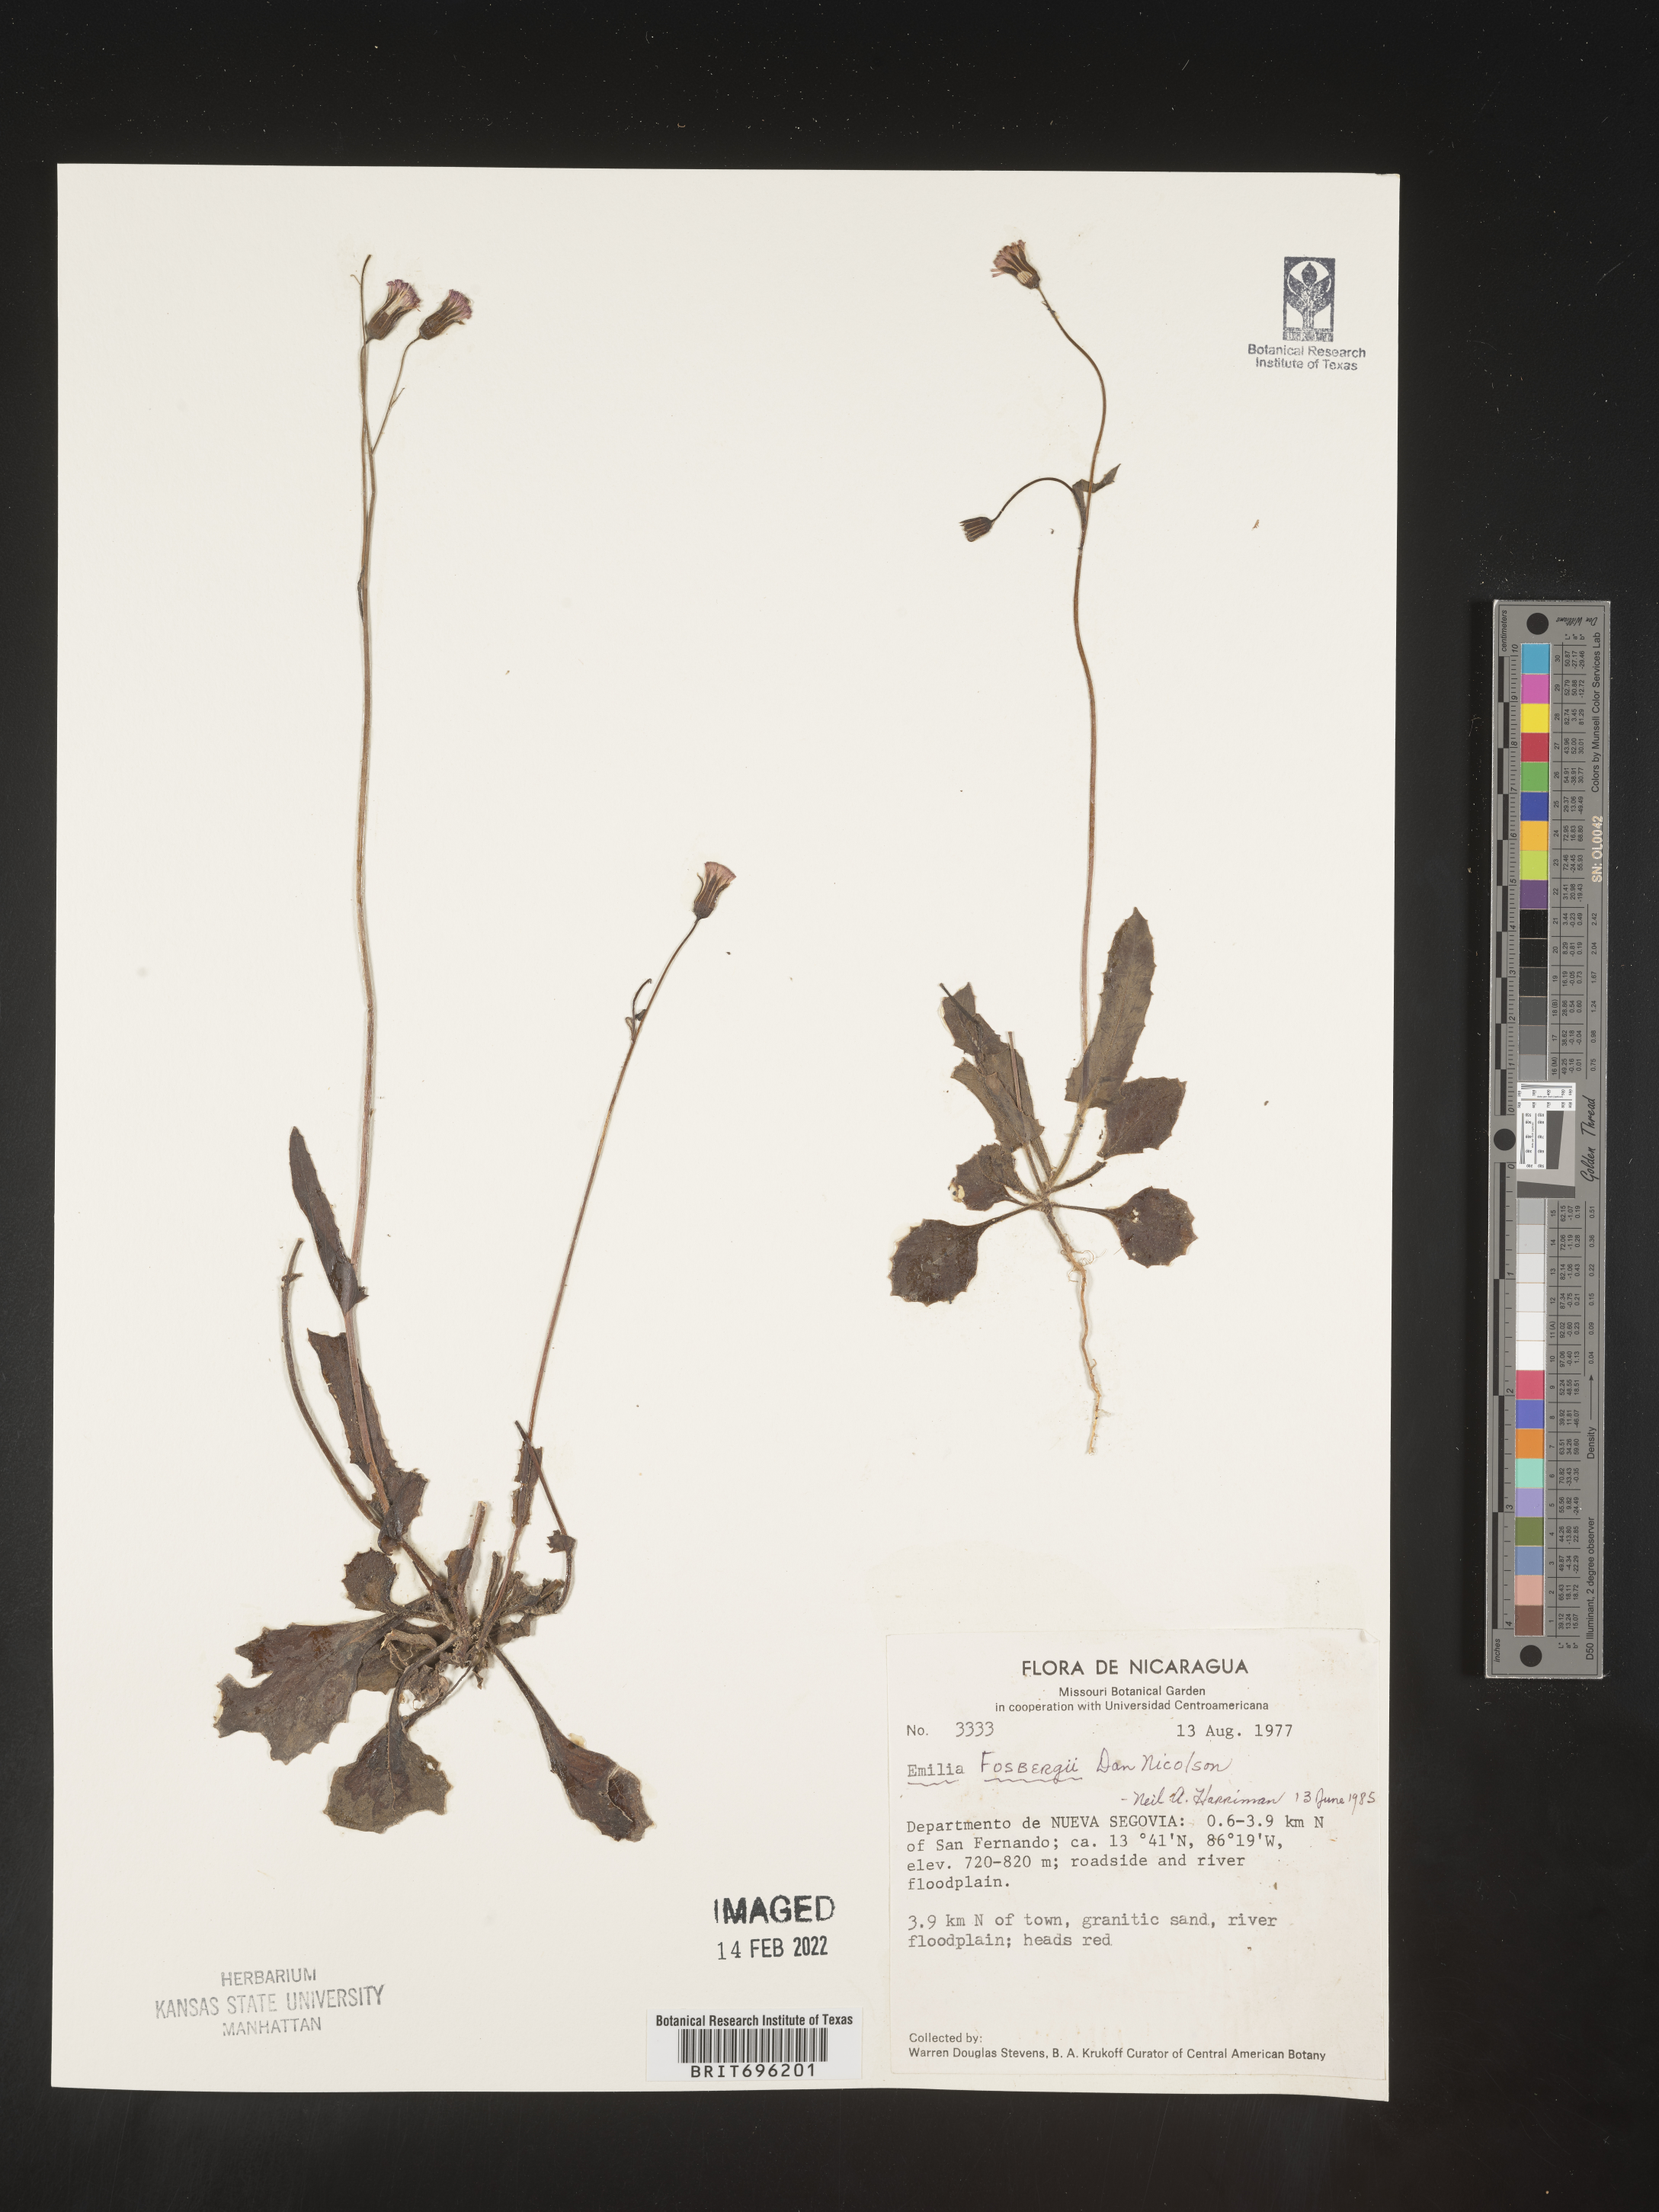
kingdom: Plantae
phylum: Tracheophyta
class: Magnoliopsida
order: Asterales
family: Asteraceae
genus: Emilia
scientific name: Emilia
